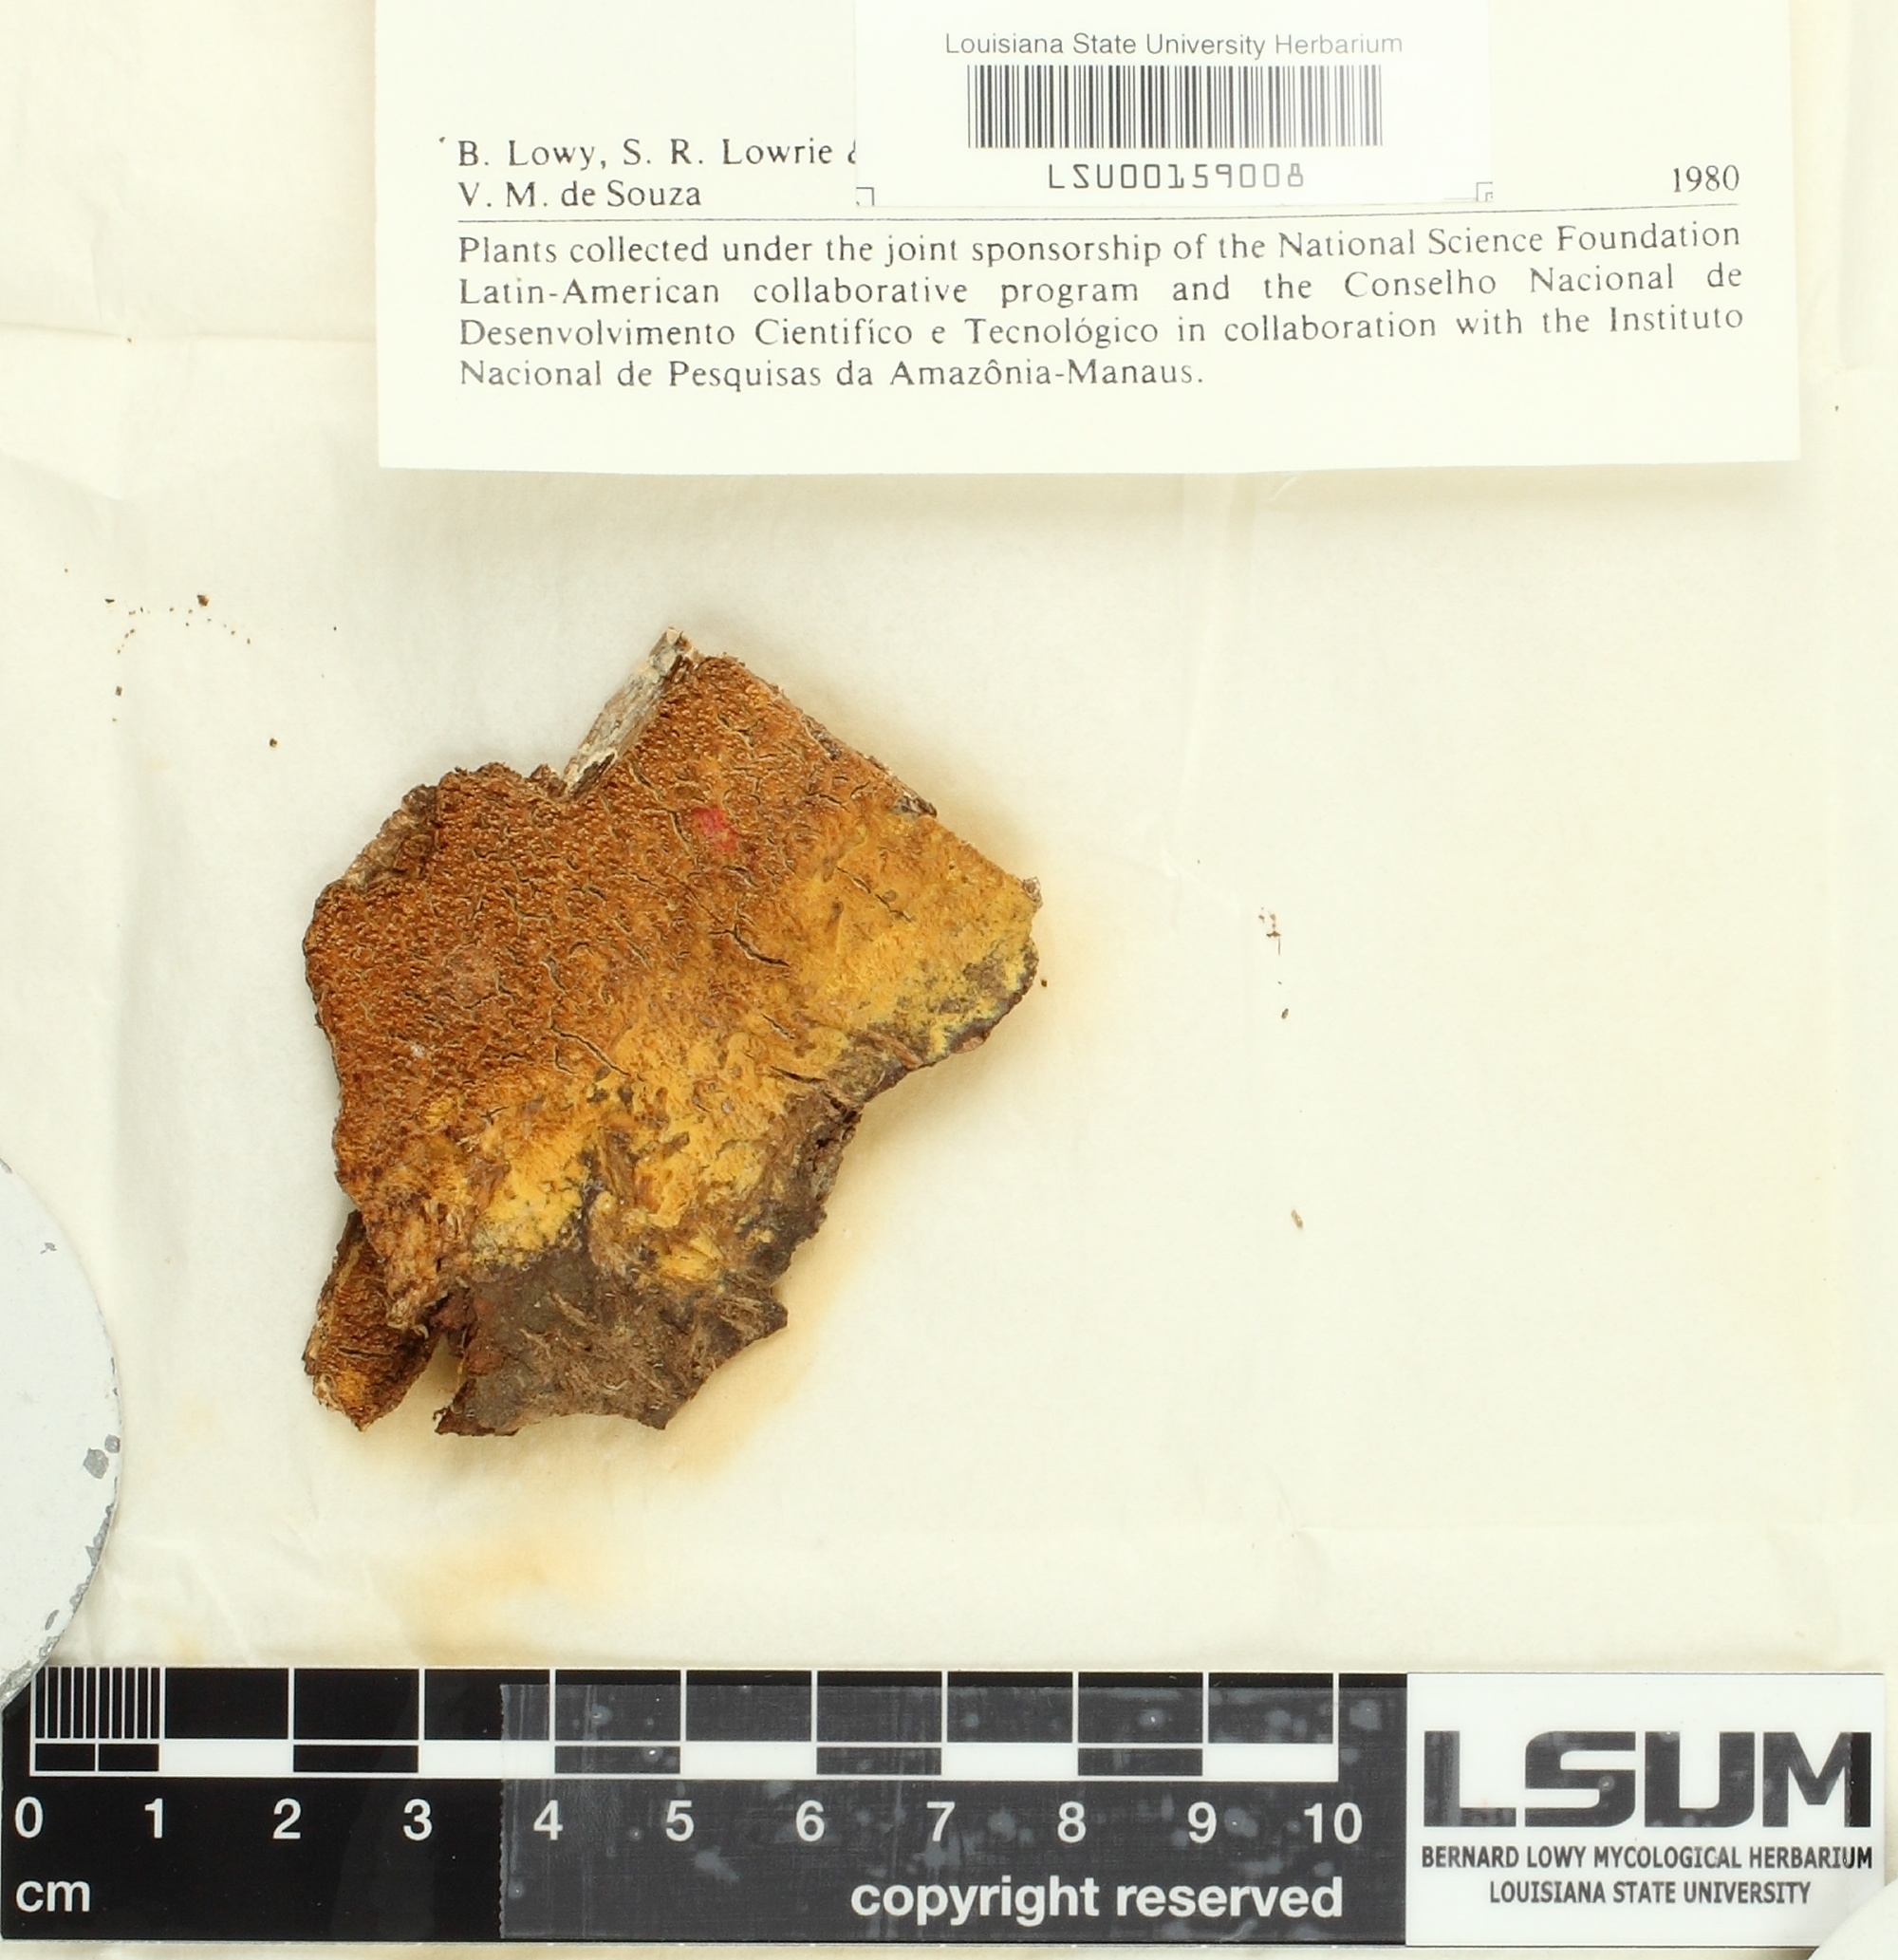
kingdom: Fungi
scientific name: Fungi
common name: Fungi
